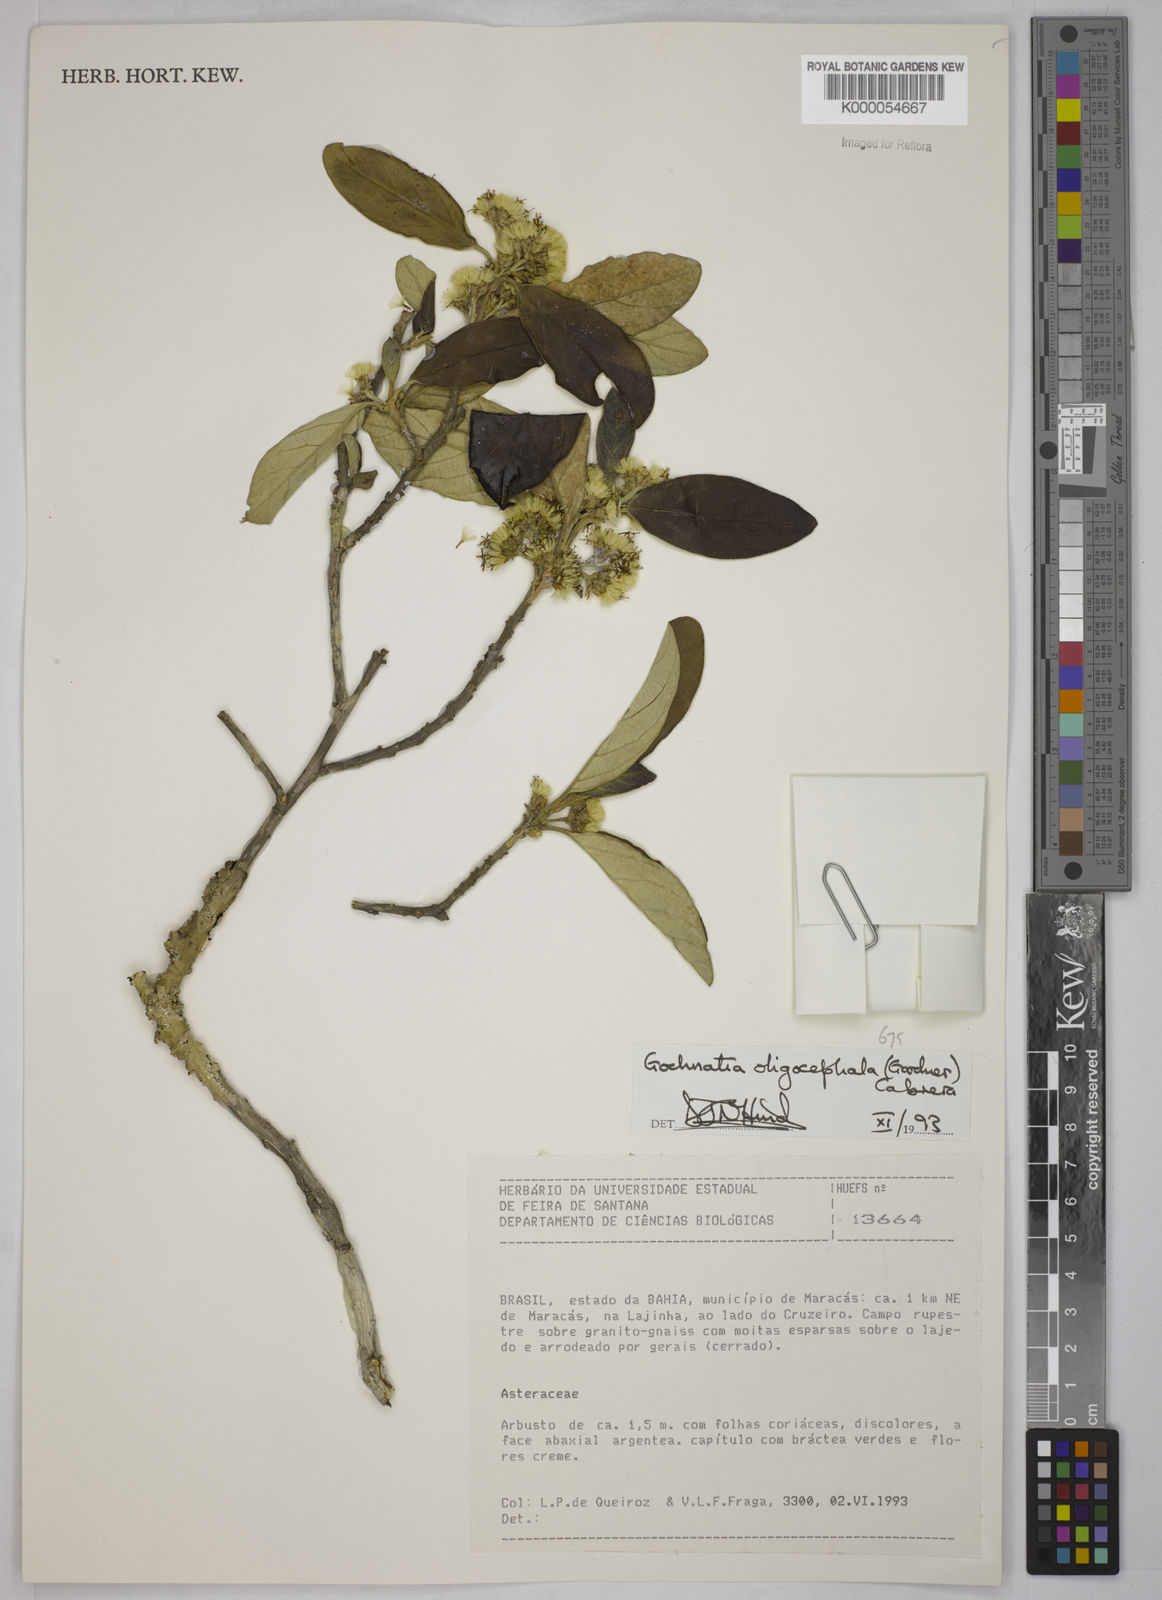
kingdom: Plantae
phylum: Tracheophyta
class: Magnoliopsida
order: Asterales
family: Asteraceae
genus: Moquiniastrum
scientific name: Moquiniastrum oligocephalum
